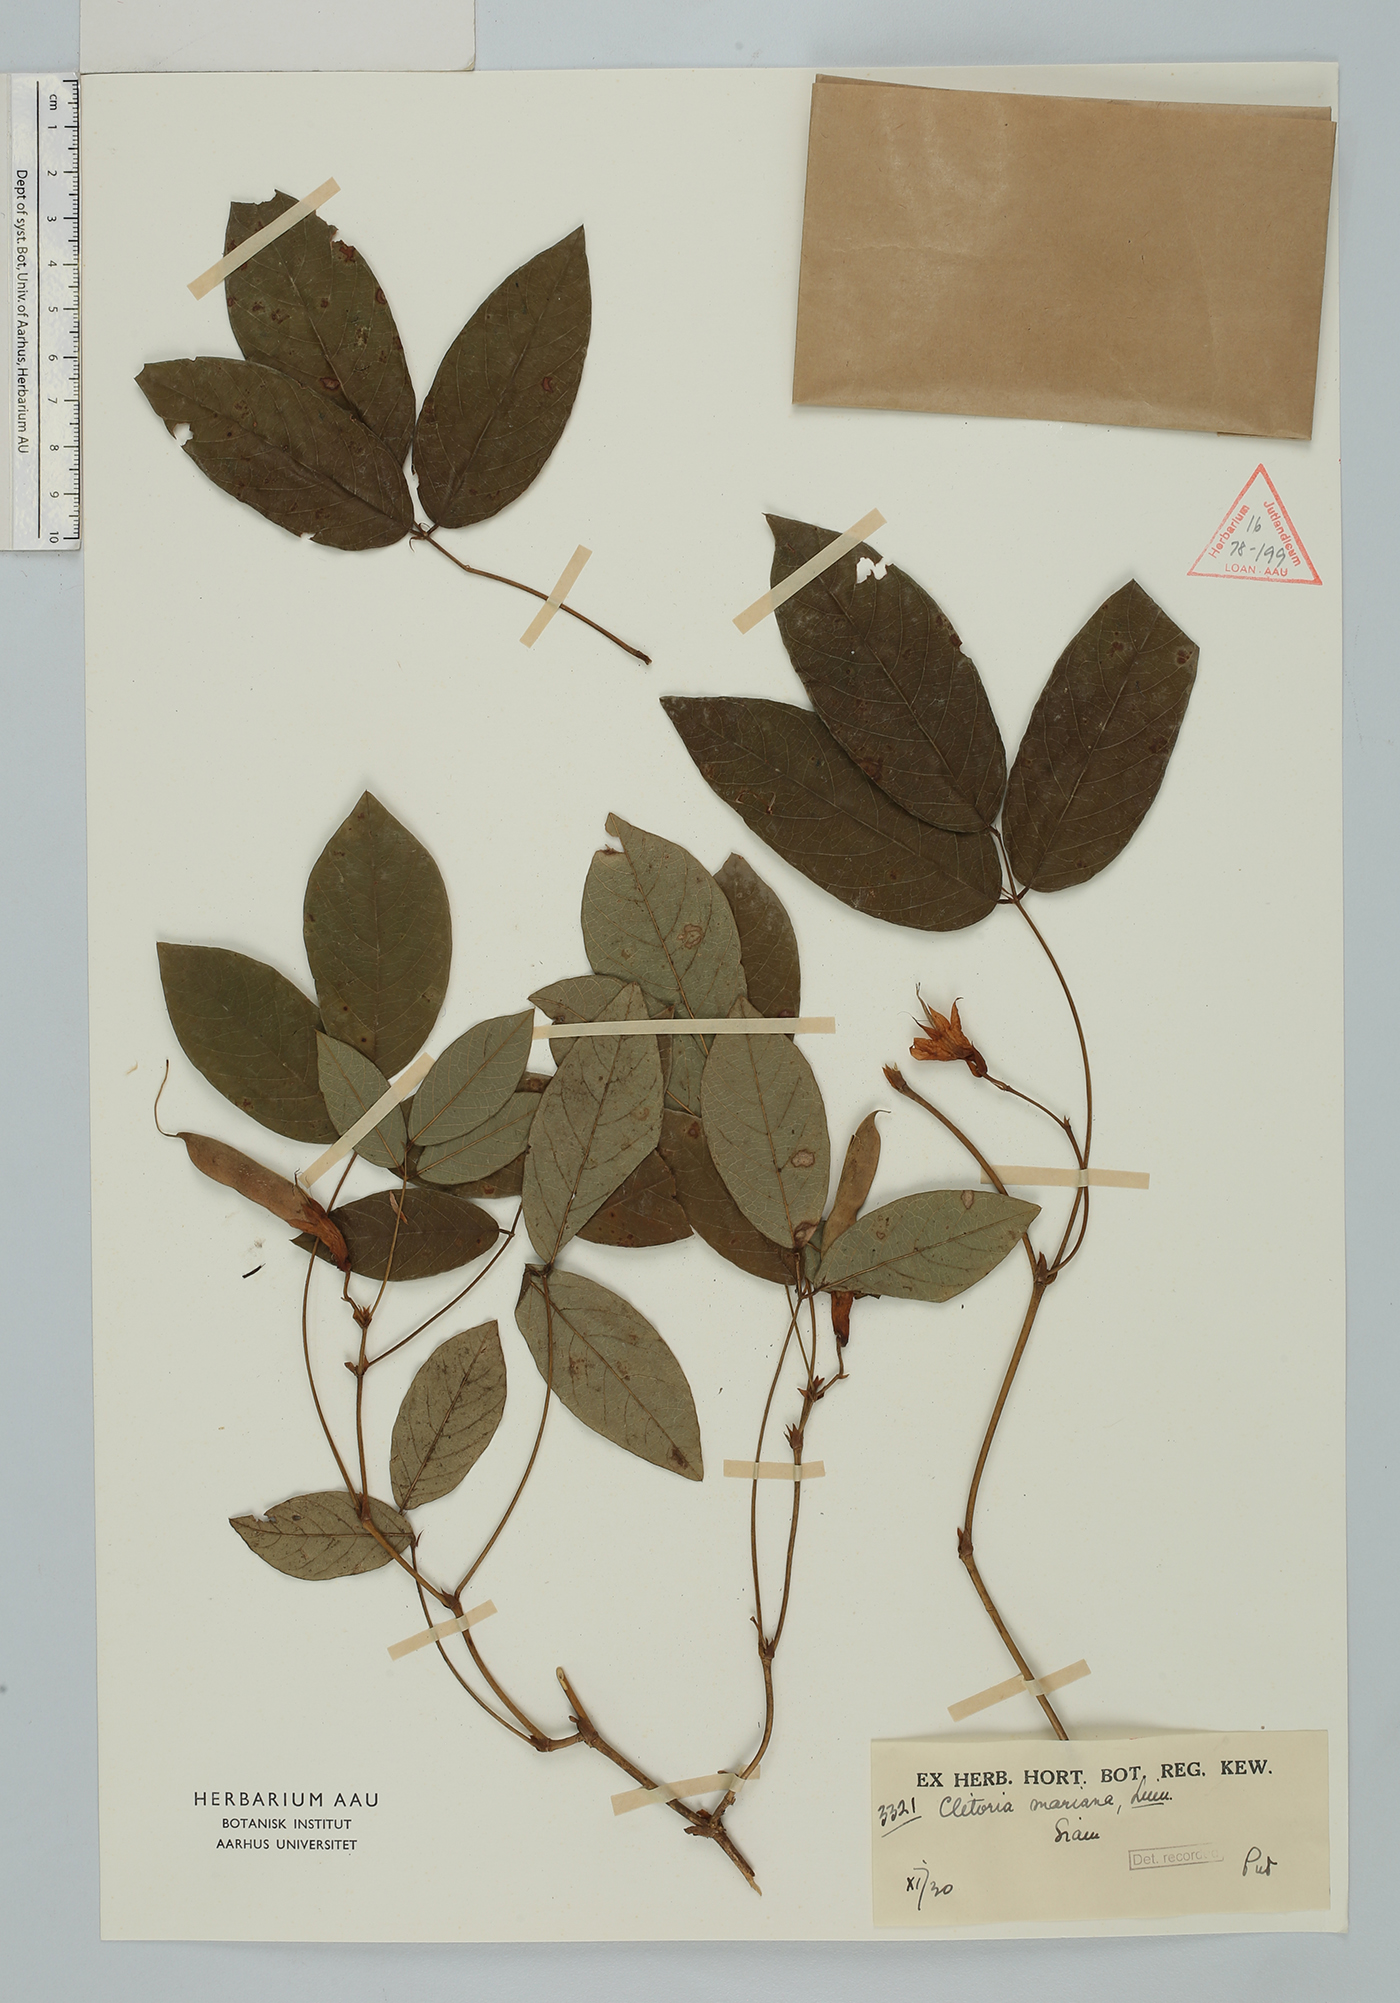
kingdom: Plantae
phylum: Tracheophyta
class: Magnoliopsida
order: Fabales
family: Fabaceae
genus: Clitoria
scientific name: Clitoria mariana
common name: Butterfly-pea
